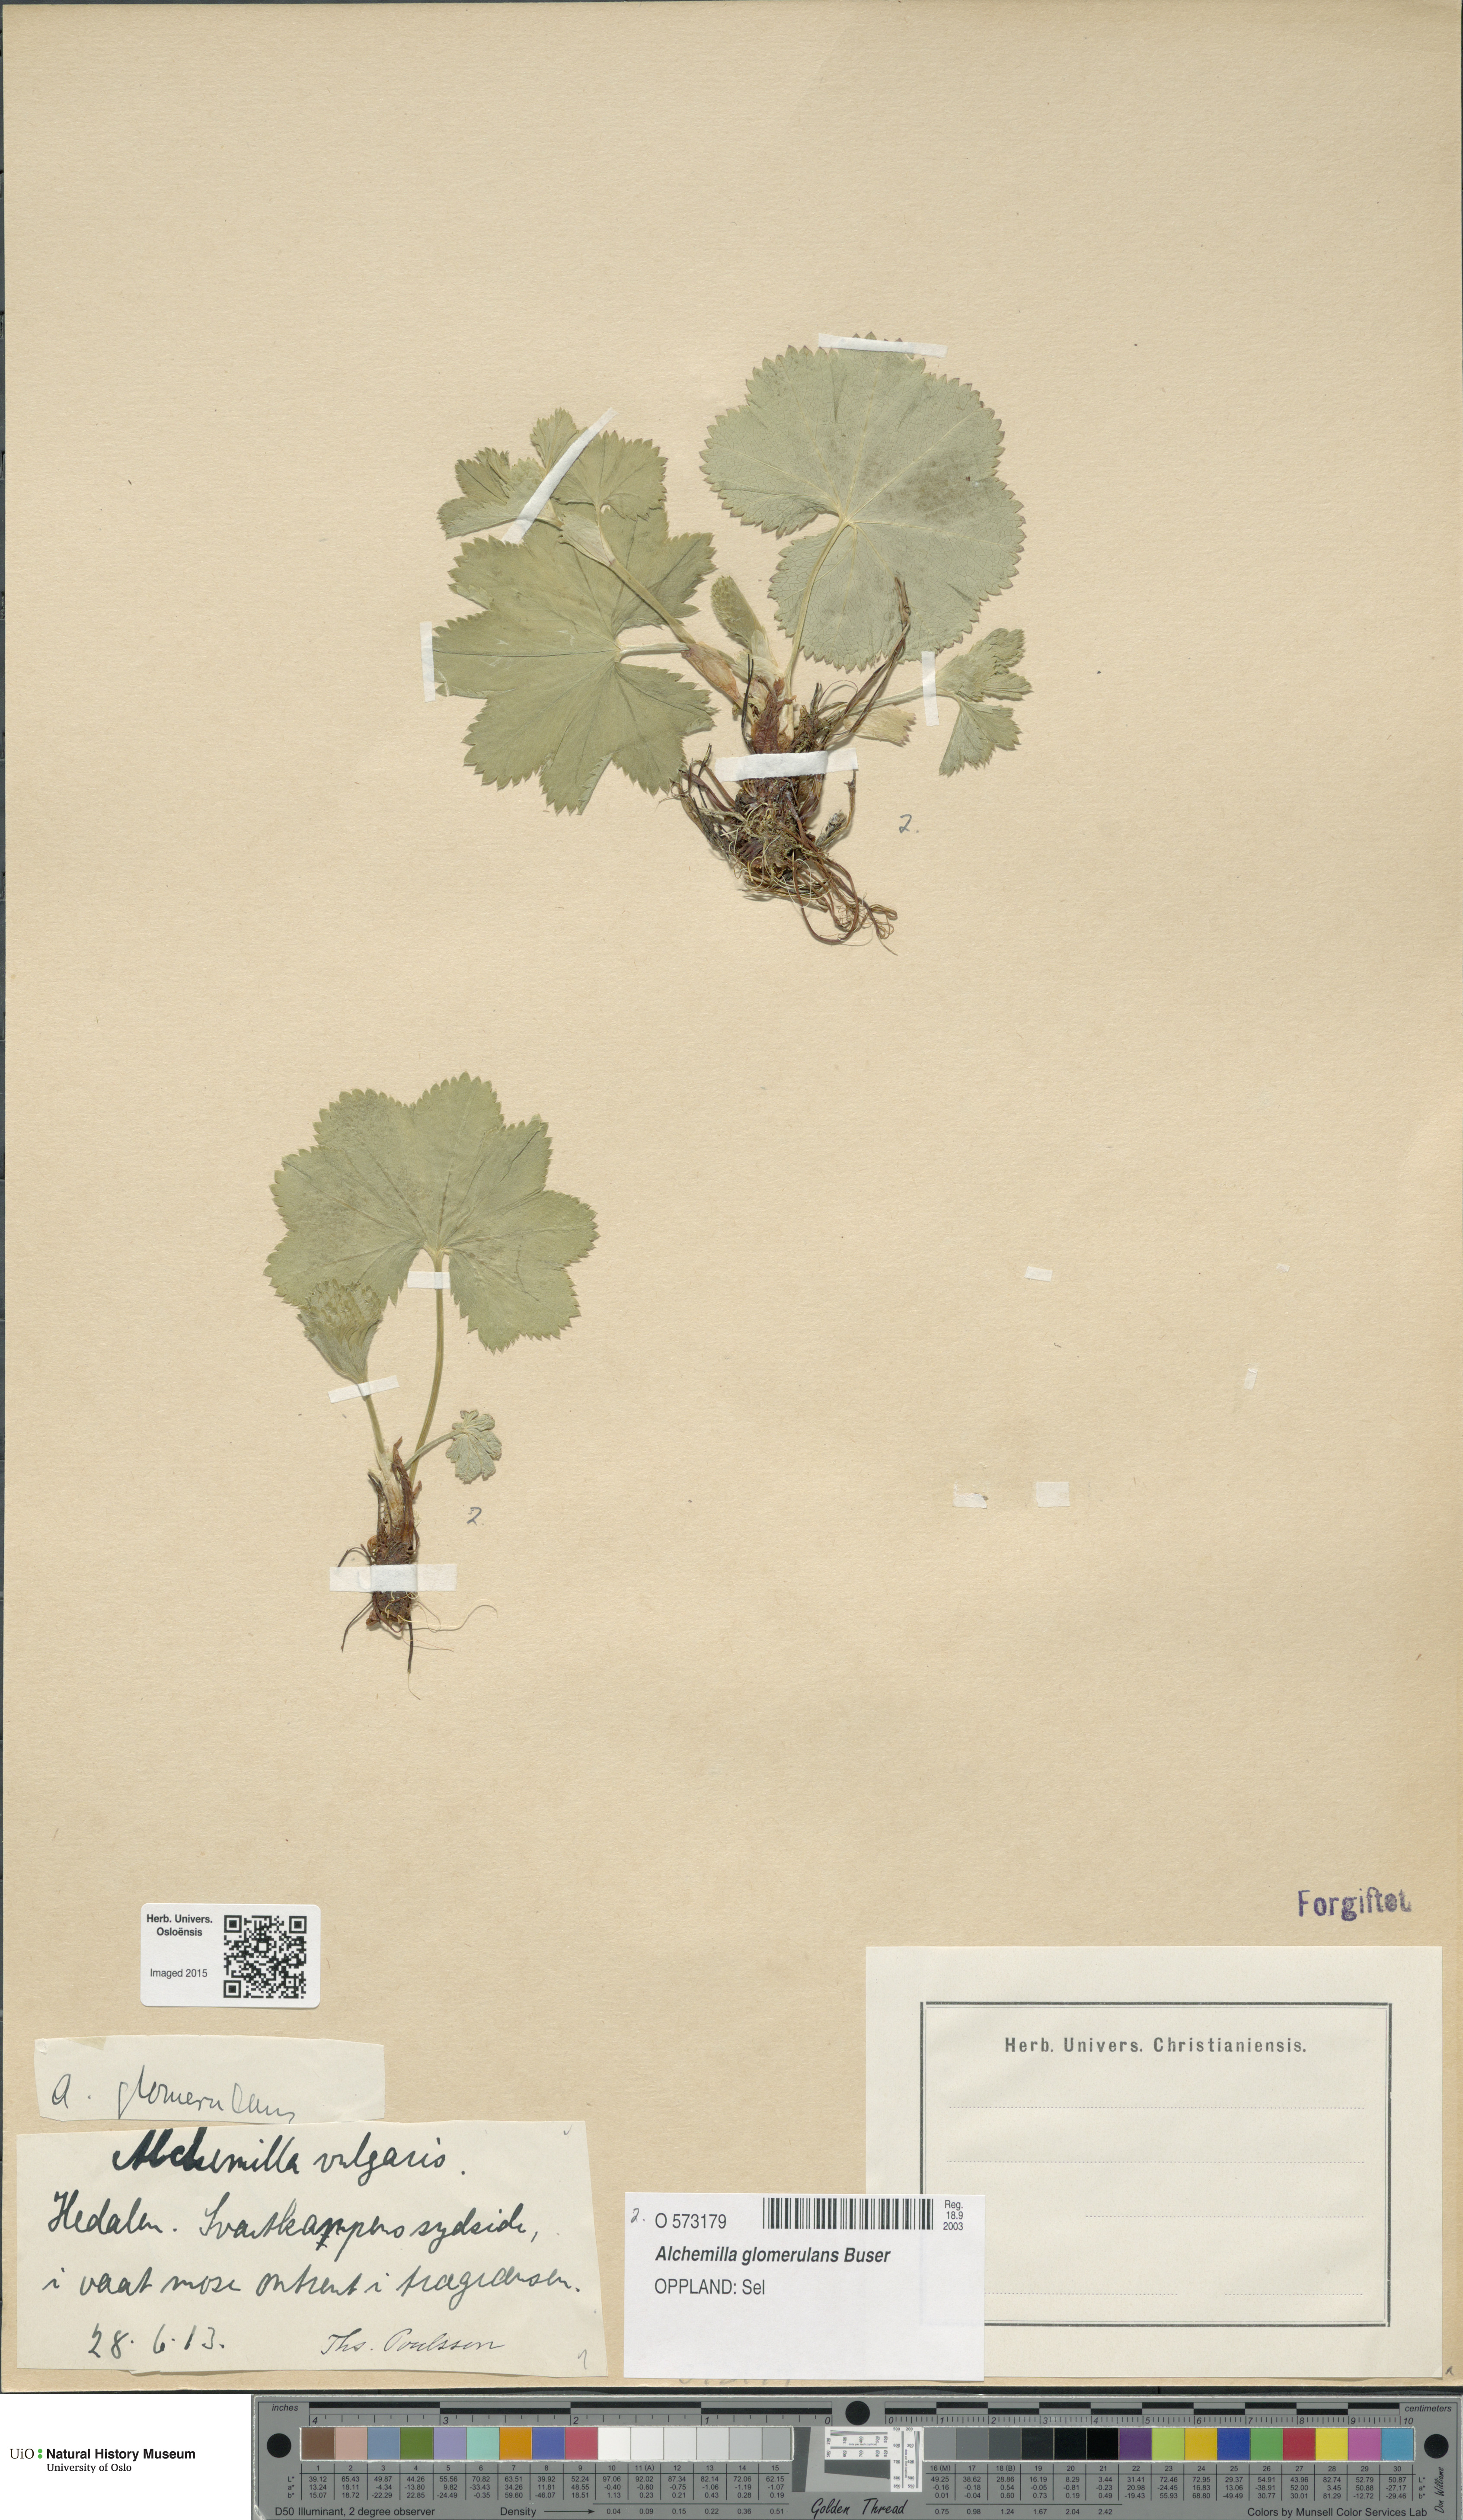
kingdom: Plantae
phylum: Tracheophyta
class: Magnoliopsida
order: Rosales
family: Rosaceae
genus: Alchemilla
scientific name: Alchemilla glomerulans
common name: Clustered lady's mantle
